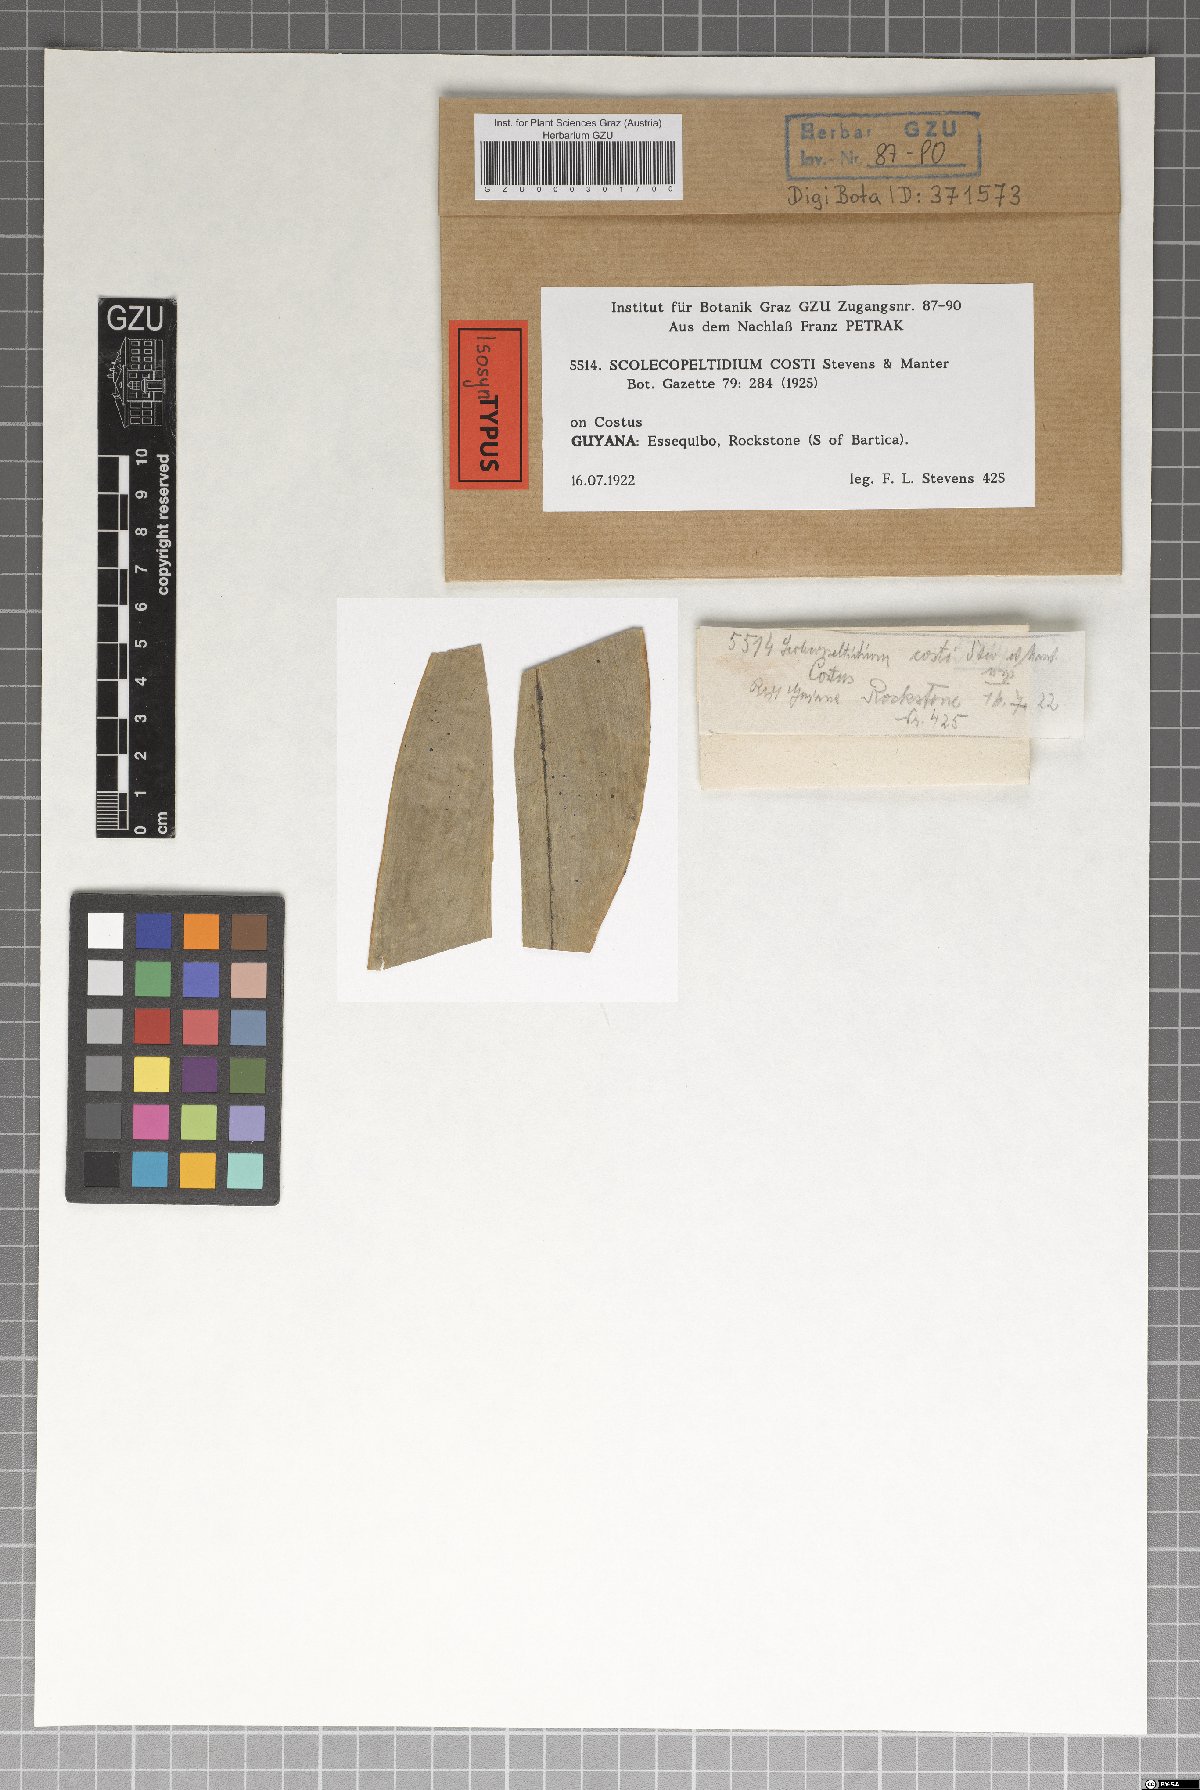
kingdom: Fungi
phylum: Ascomycota
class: Dothideomycetes
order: Microthyriales
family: Micropeltidaceae
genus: Micropeltis
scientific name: Micropeltis costi
